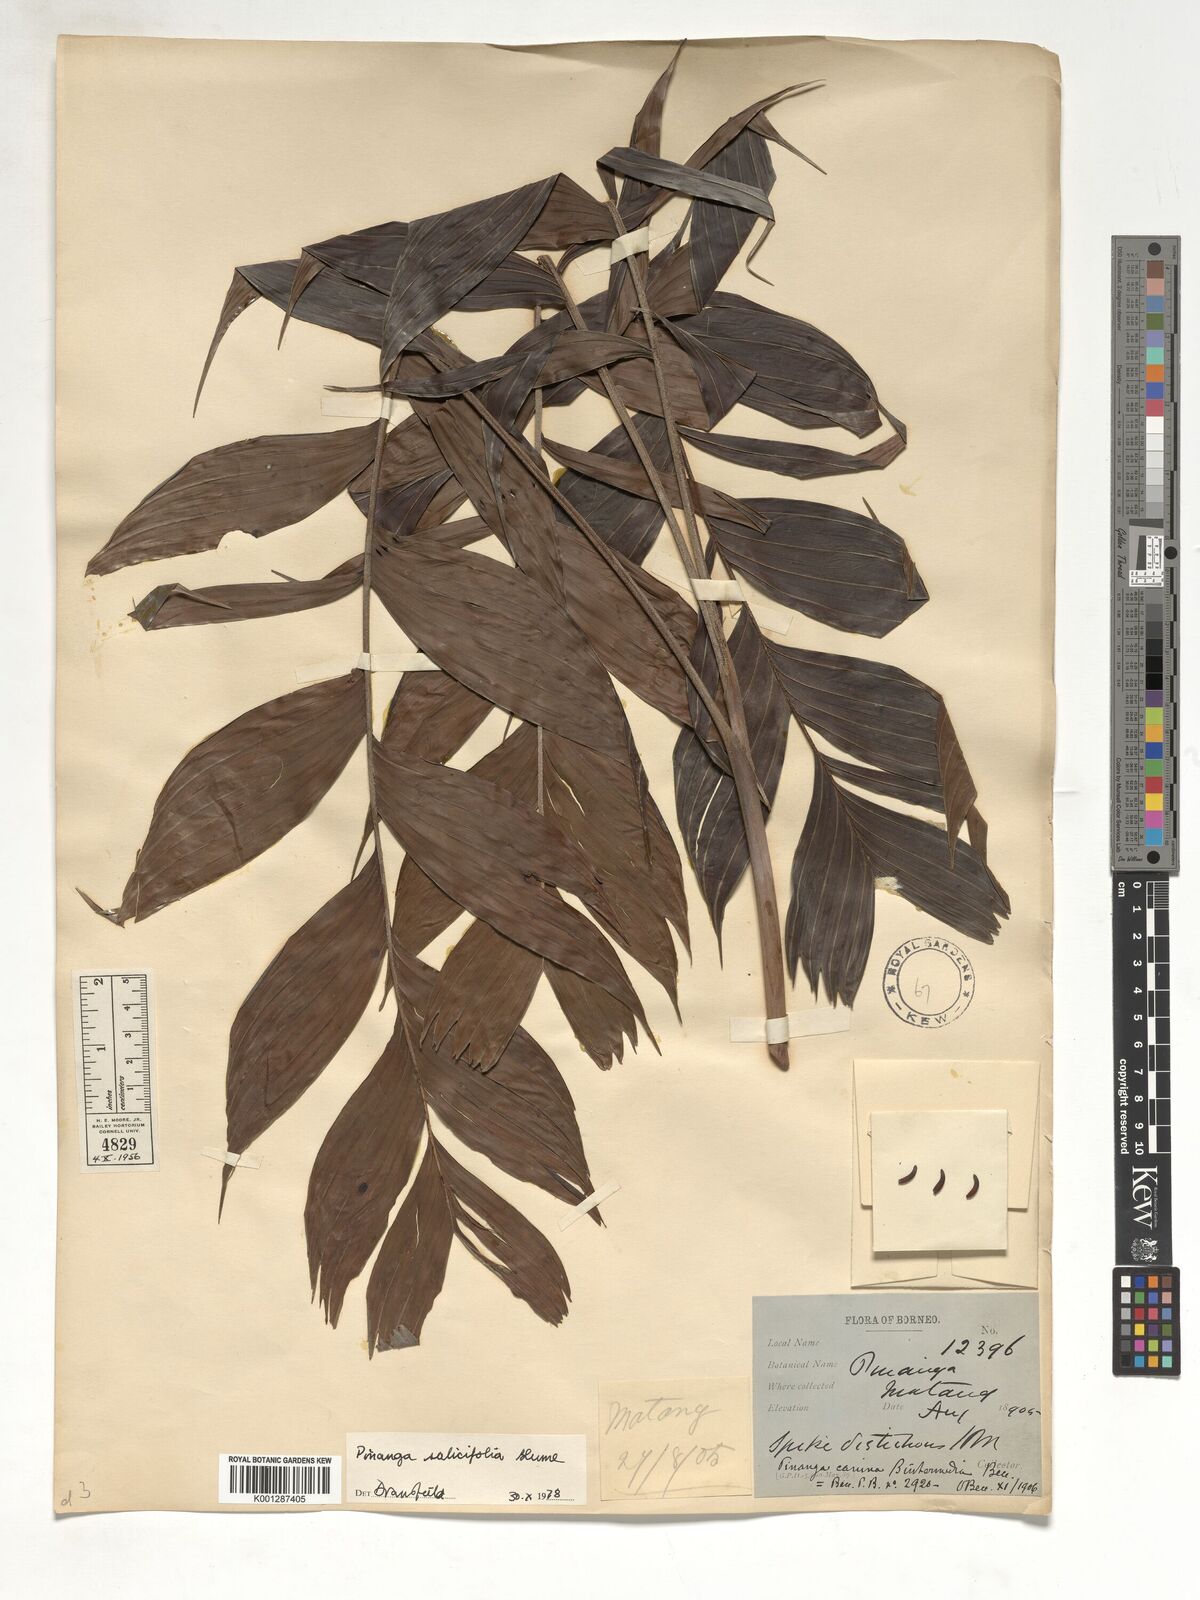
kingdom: Plantae
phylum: Tracheophyta
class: Liliopsida
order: Arecales
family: Arecaceae
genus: Pinanga
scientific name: Pinanga salicifolia
